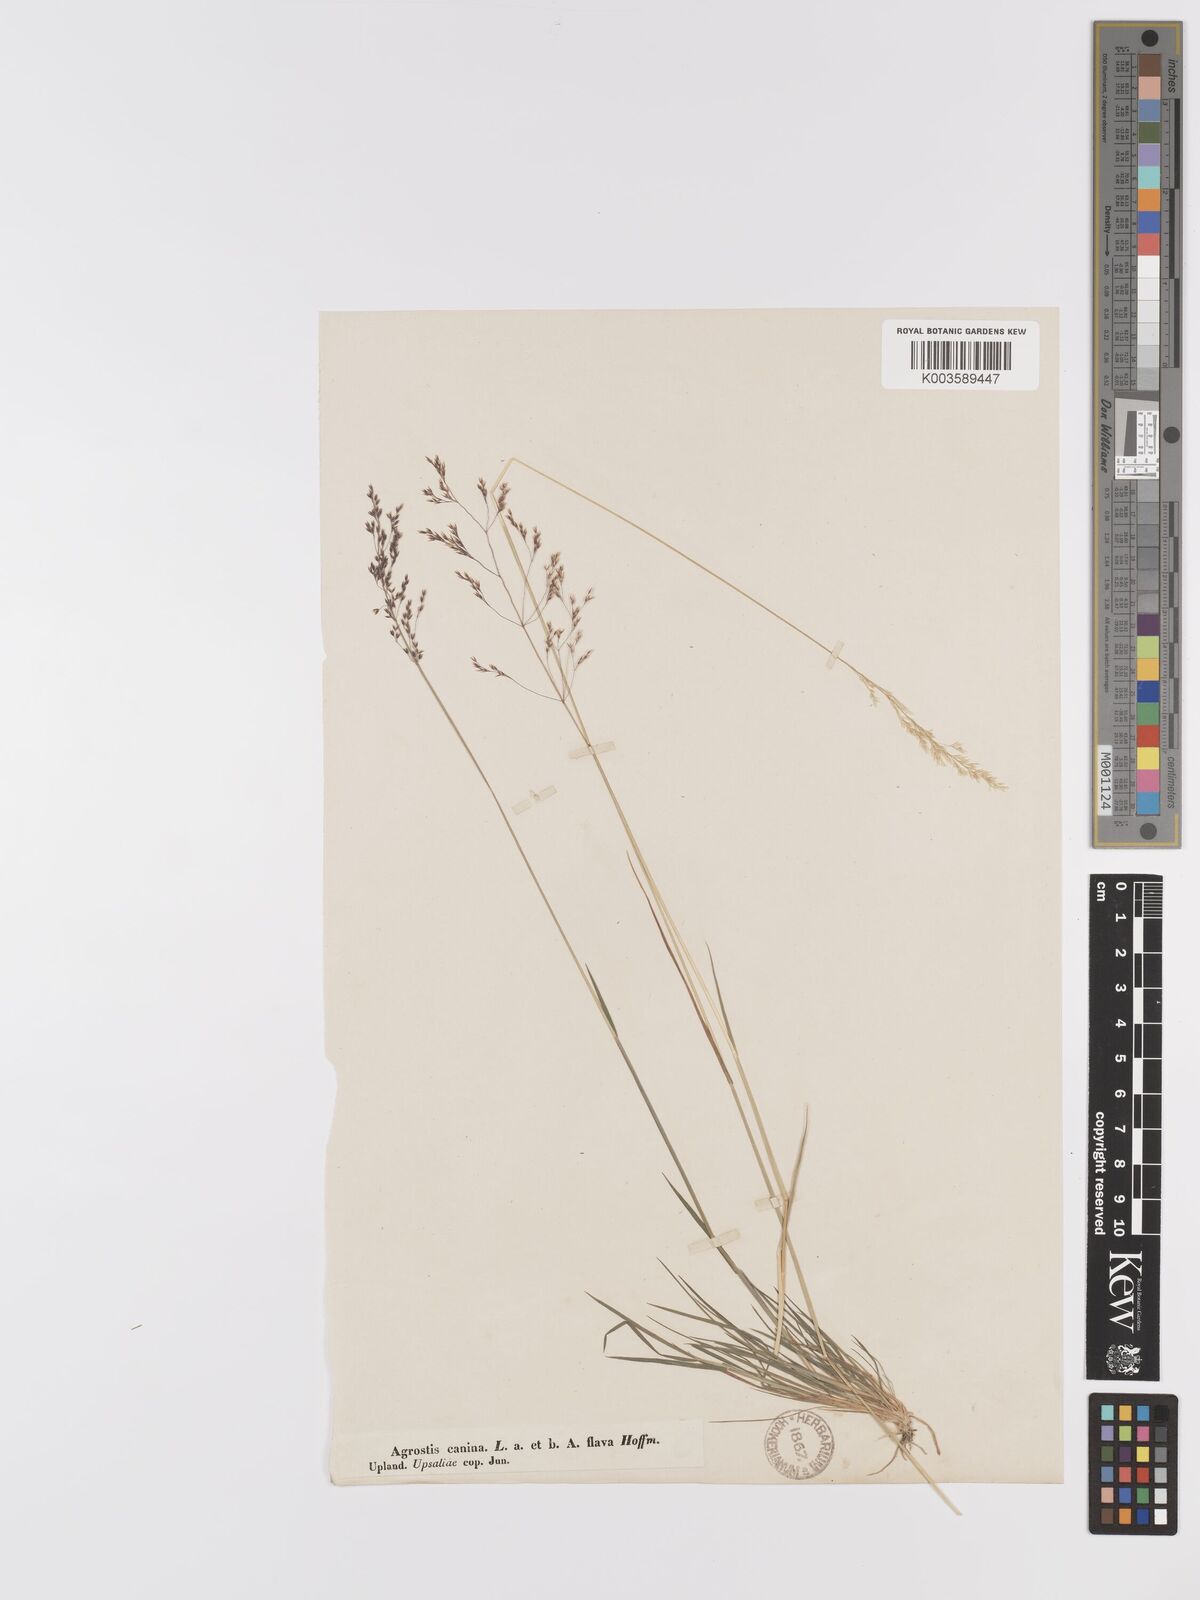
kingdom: Plantae
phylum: Tracheophyta
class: Liliopsida
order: Poales
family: Poaceae
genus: Agrostis
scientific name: Agrostis canina
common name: Velvet bent
